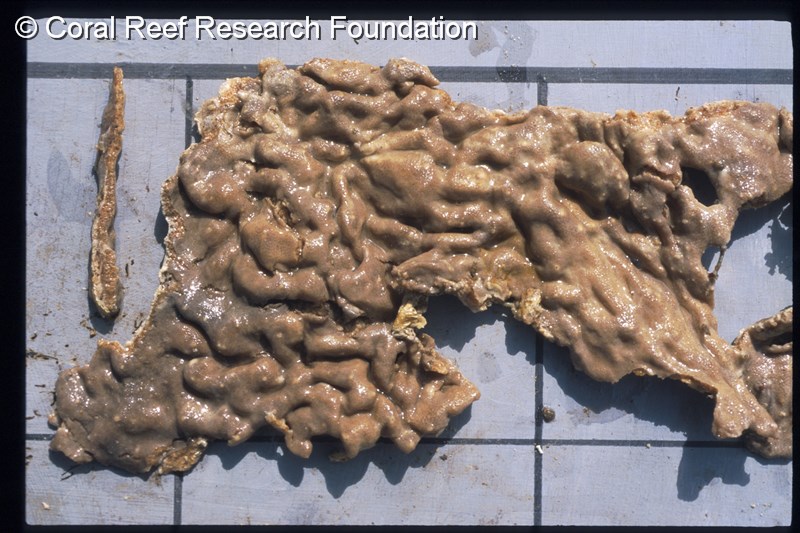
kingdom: Animalia
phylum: Chordata
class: Ascidiacea
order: Aplousobranchia
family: Didemnidae
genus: Leptoclinides
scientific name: Leptoclinides
